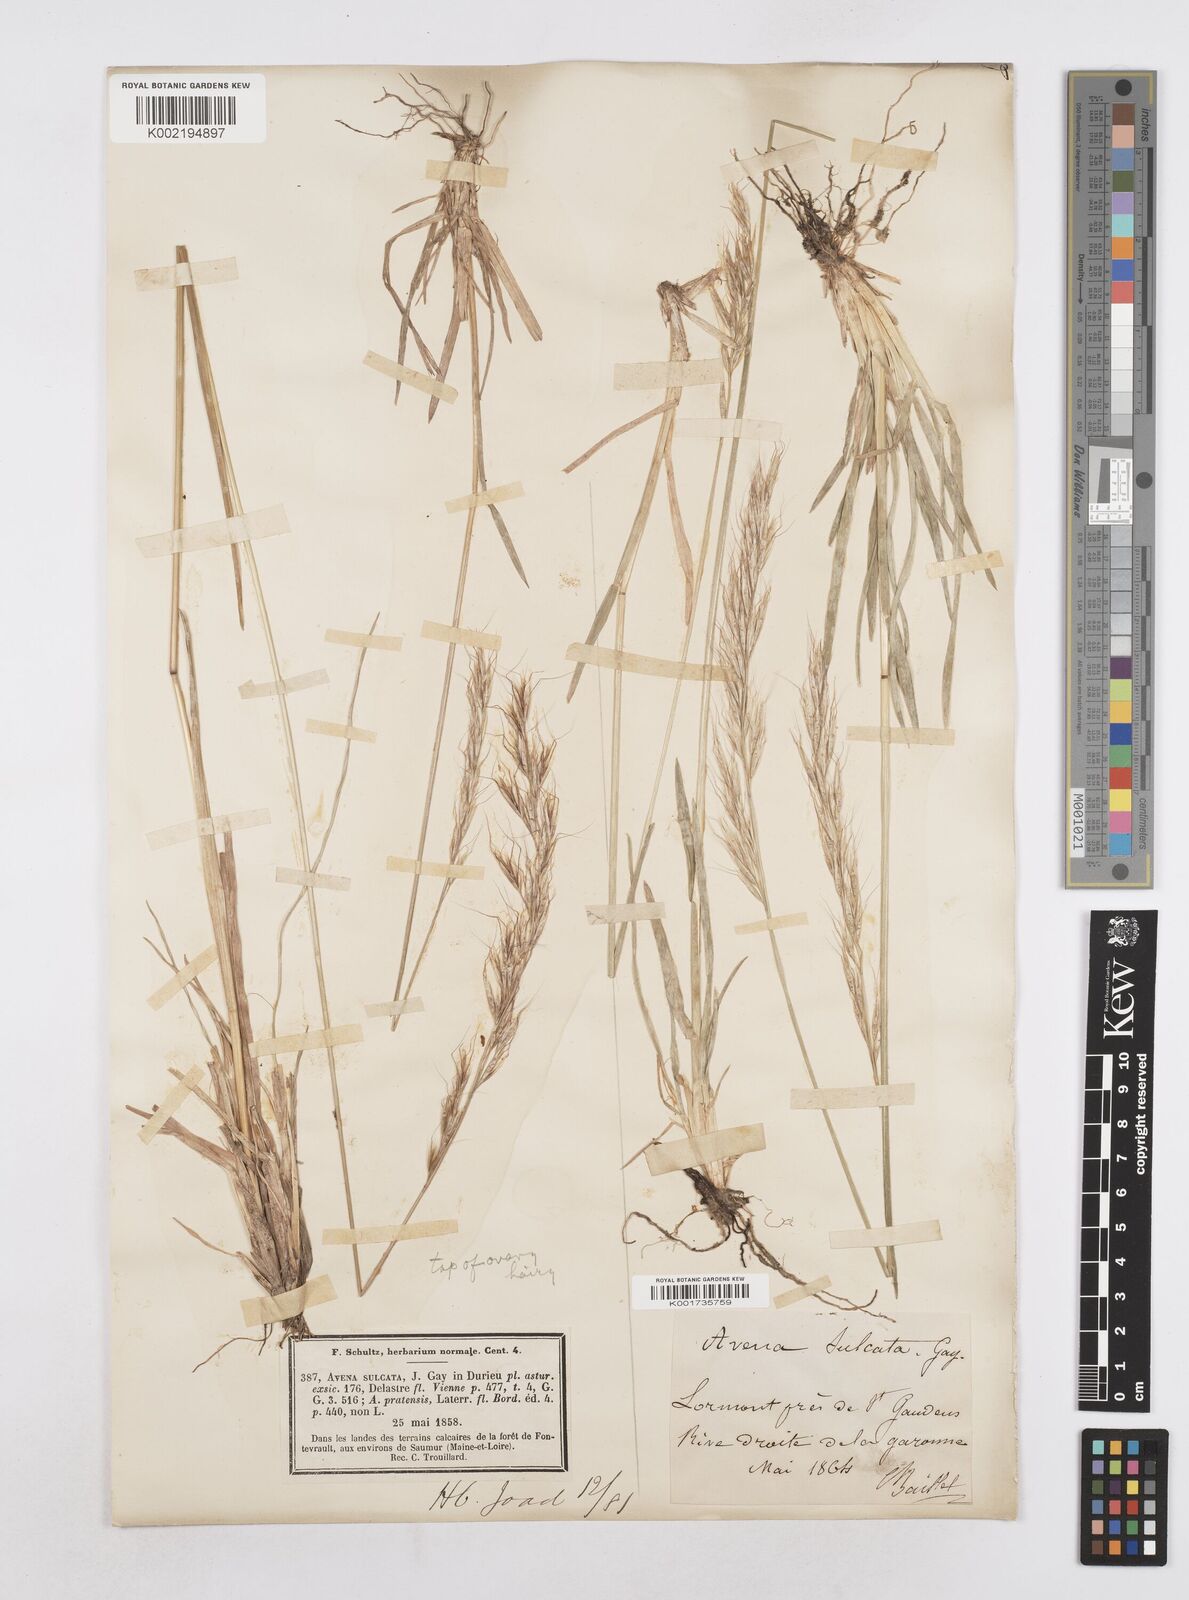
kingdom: Plantae
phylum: Tracheophyta
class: Liliopsida
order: Poales
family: Poaceae
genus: Helictotrichon
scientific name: Helictotrichon
